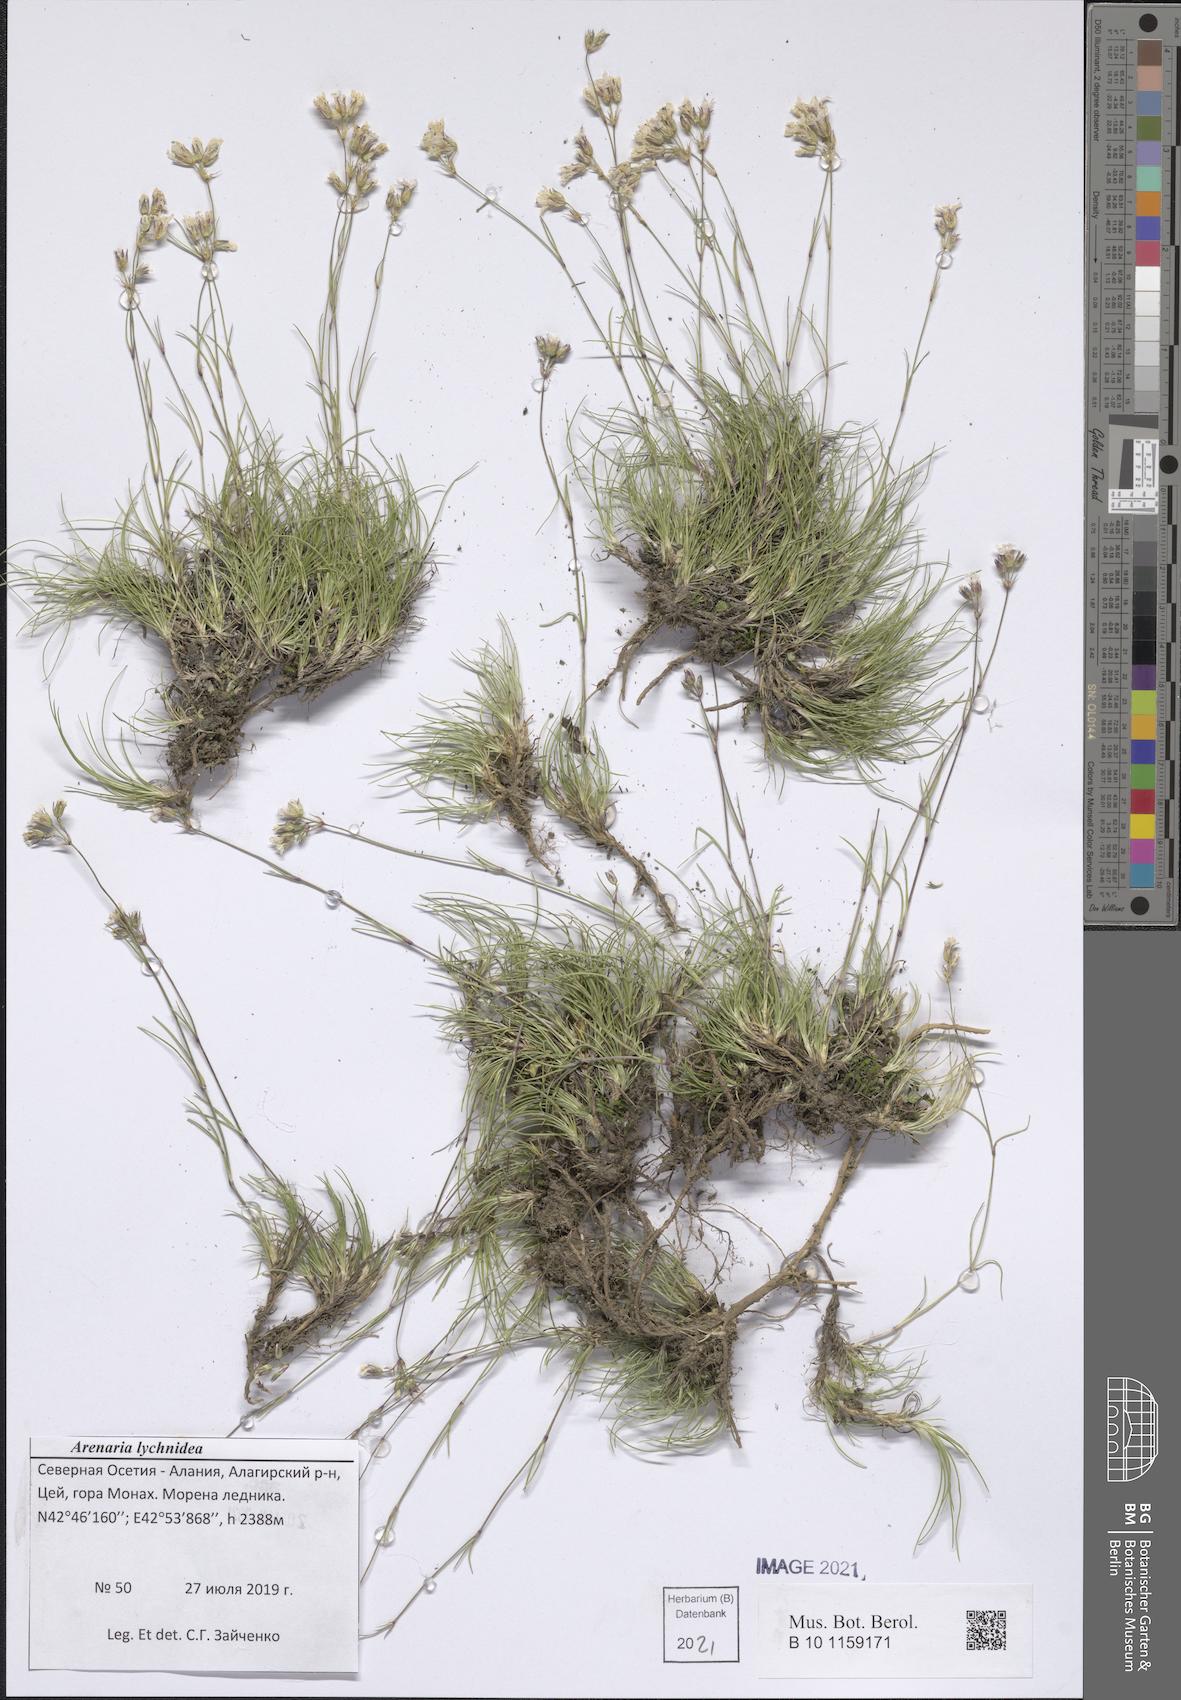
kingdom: Plantae
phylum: Tracheophyta
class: Magnoliopsida
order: Caryophyllales
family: Caryophyllaceae
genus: Eremogone
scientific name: Eremogone lychnidea
